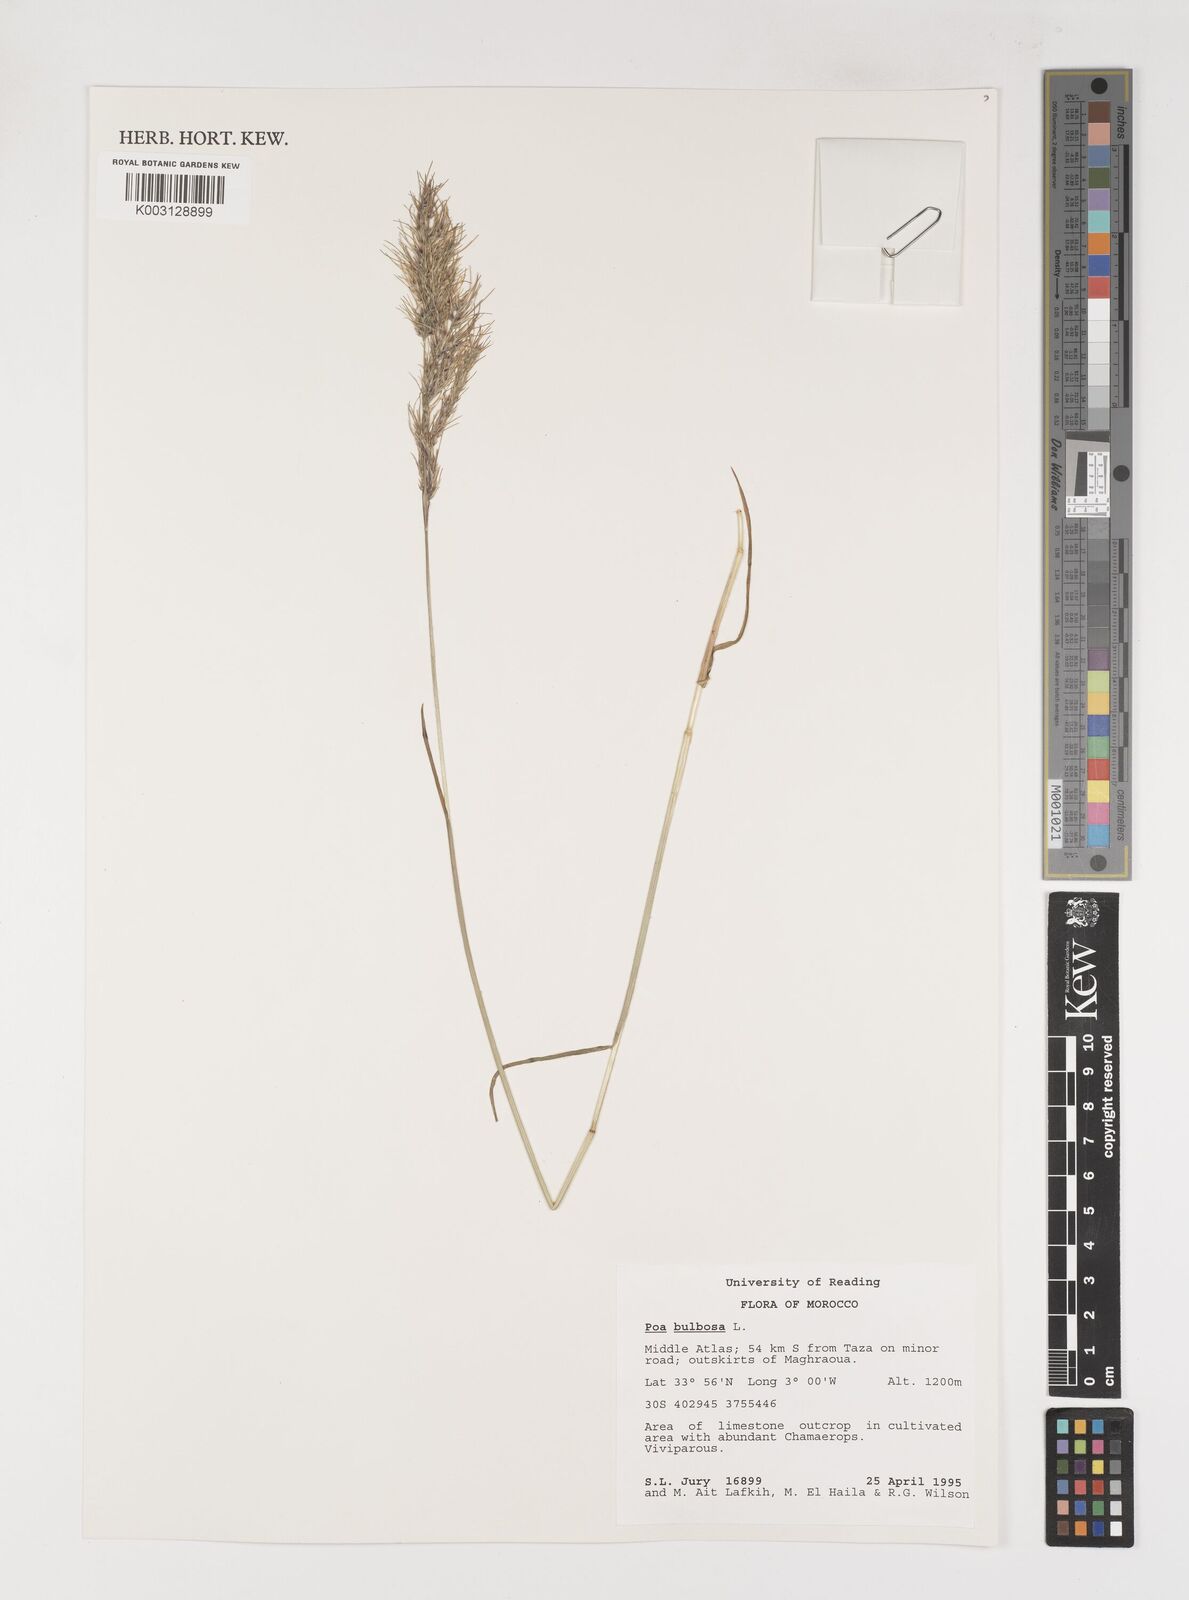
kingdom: Plantae
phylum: Tracheophyta
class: Liliopsida
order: Poales
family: Poaceae
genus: Poa
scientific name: Poa bulbosa
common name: Bulbous bluegrass
